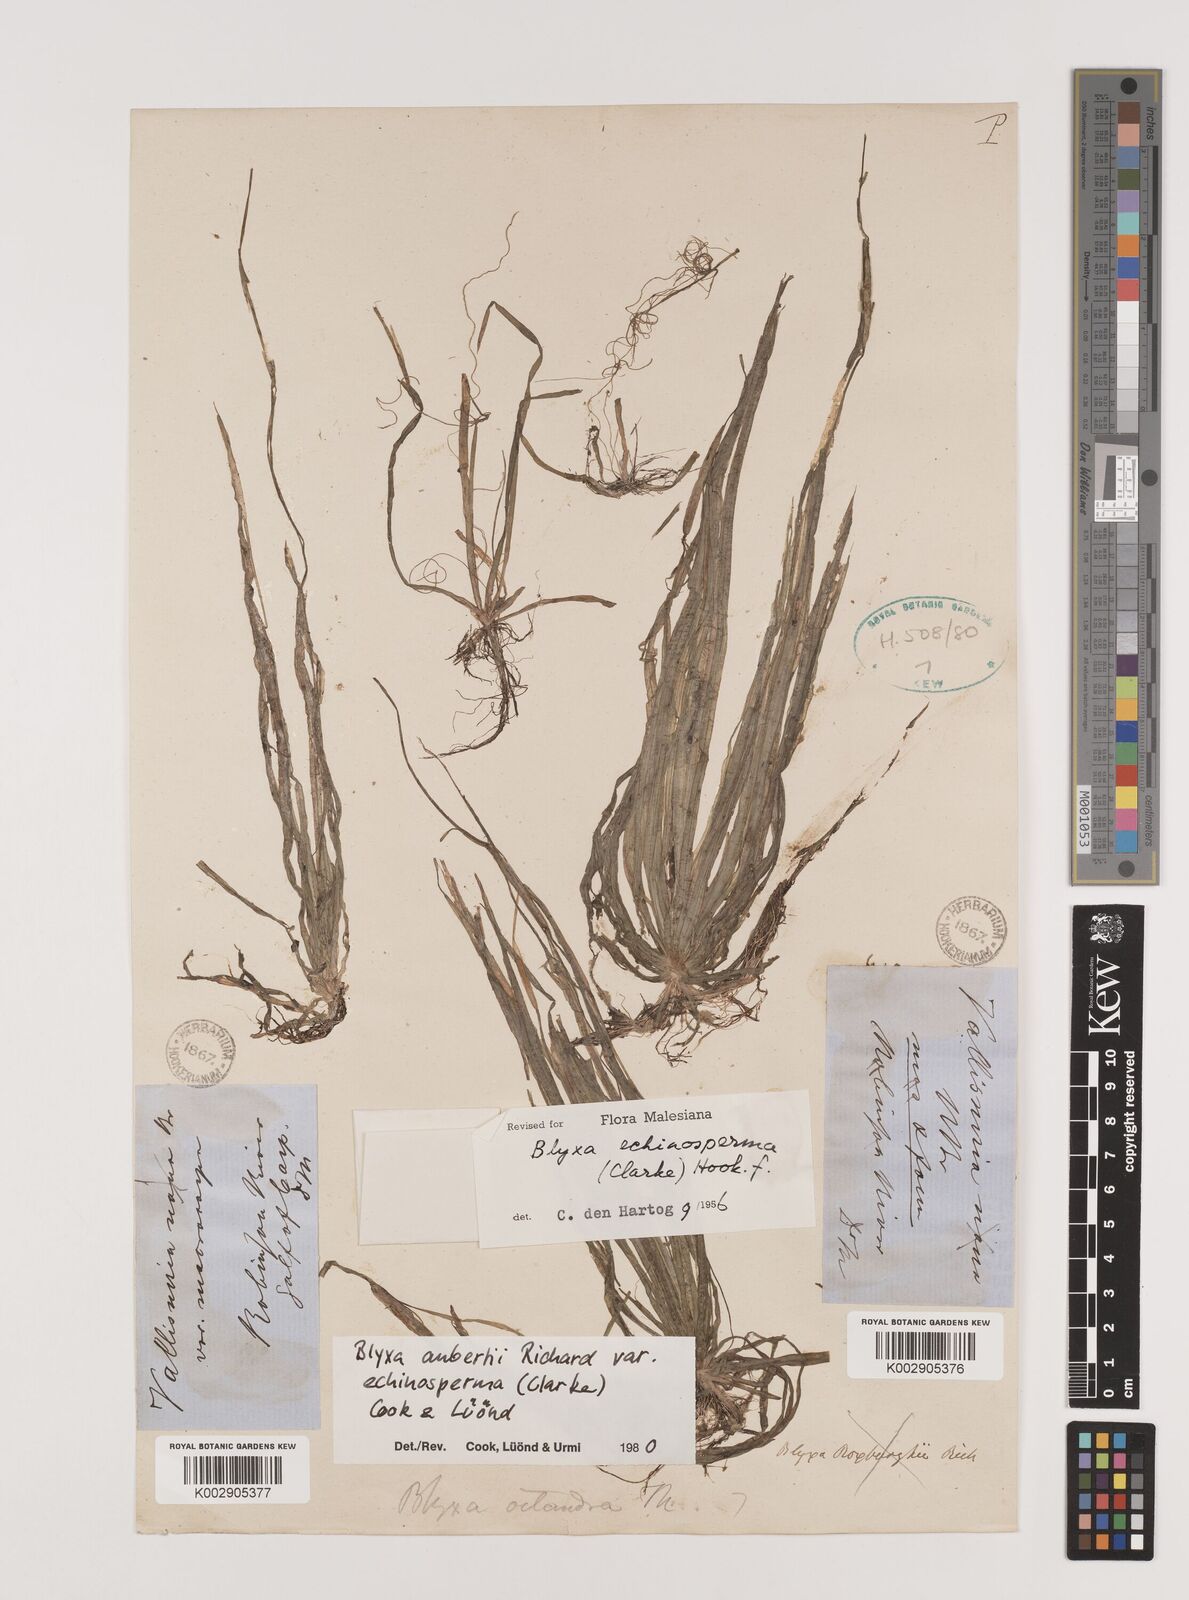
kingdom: Plantae
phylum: Tracheophyta
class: Liliopsida
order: Alismatales
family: Hydrocharitaceae
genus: Blyxa
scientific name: Blyxa aubertii
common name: Roundfruit blyxa
